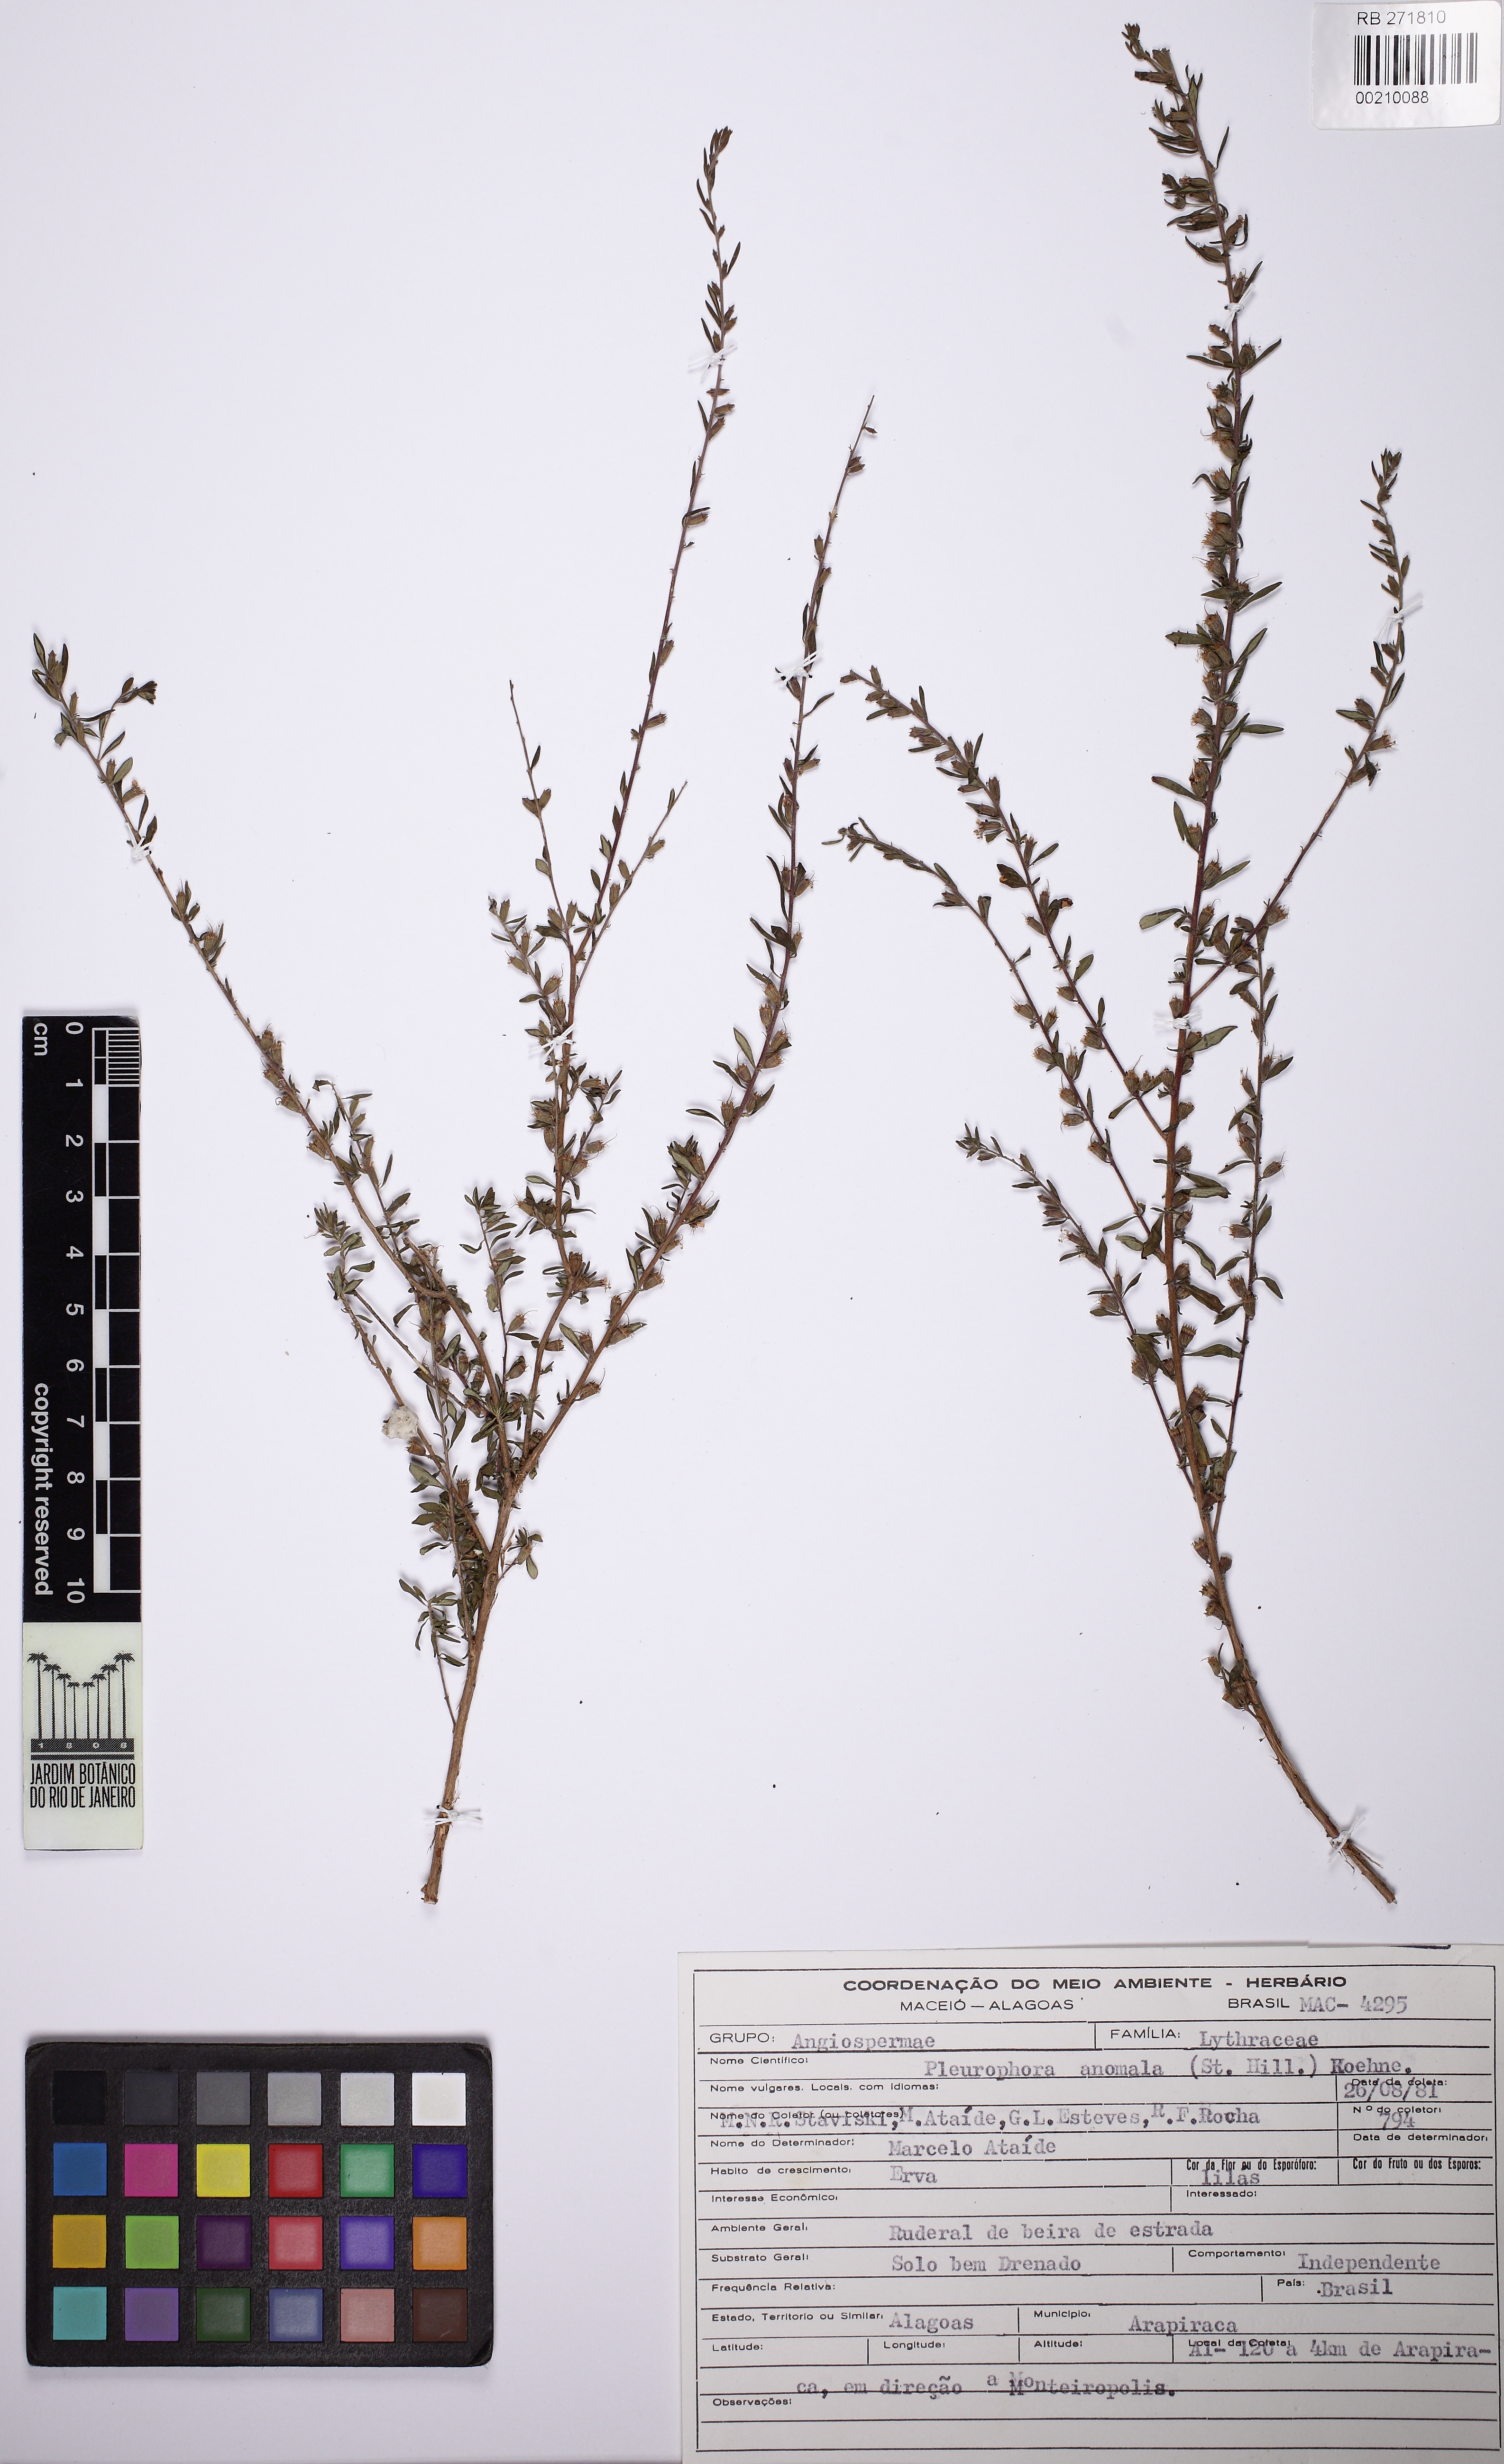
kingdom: Plantae
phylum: Tracheophyta
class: Magnoliopsida
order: Myrtales
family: Lythraceae
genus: Pleurophora
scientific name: Pleurophora anomala
